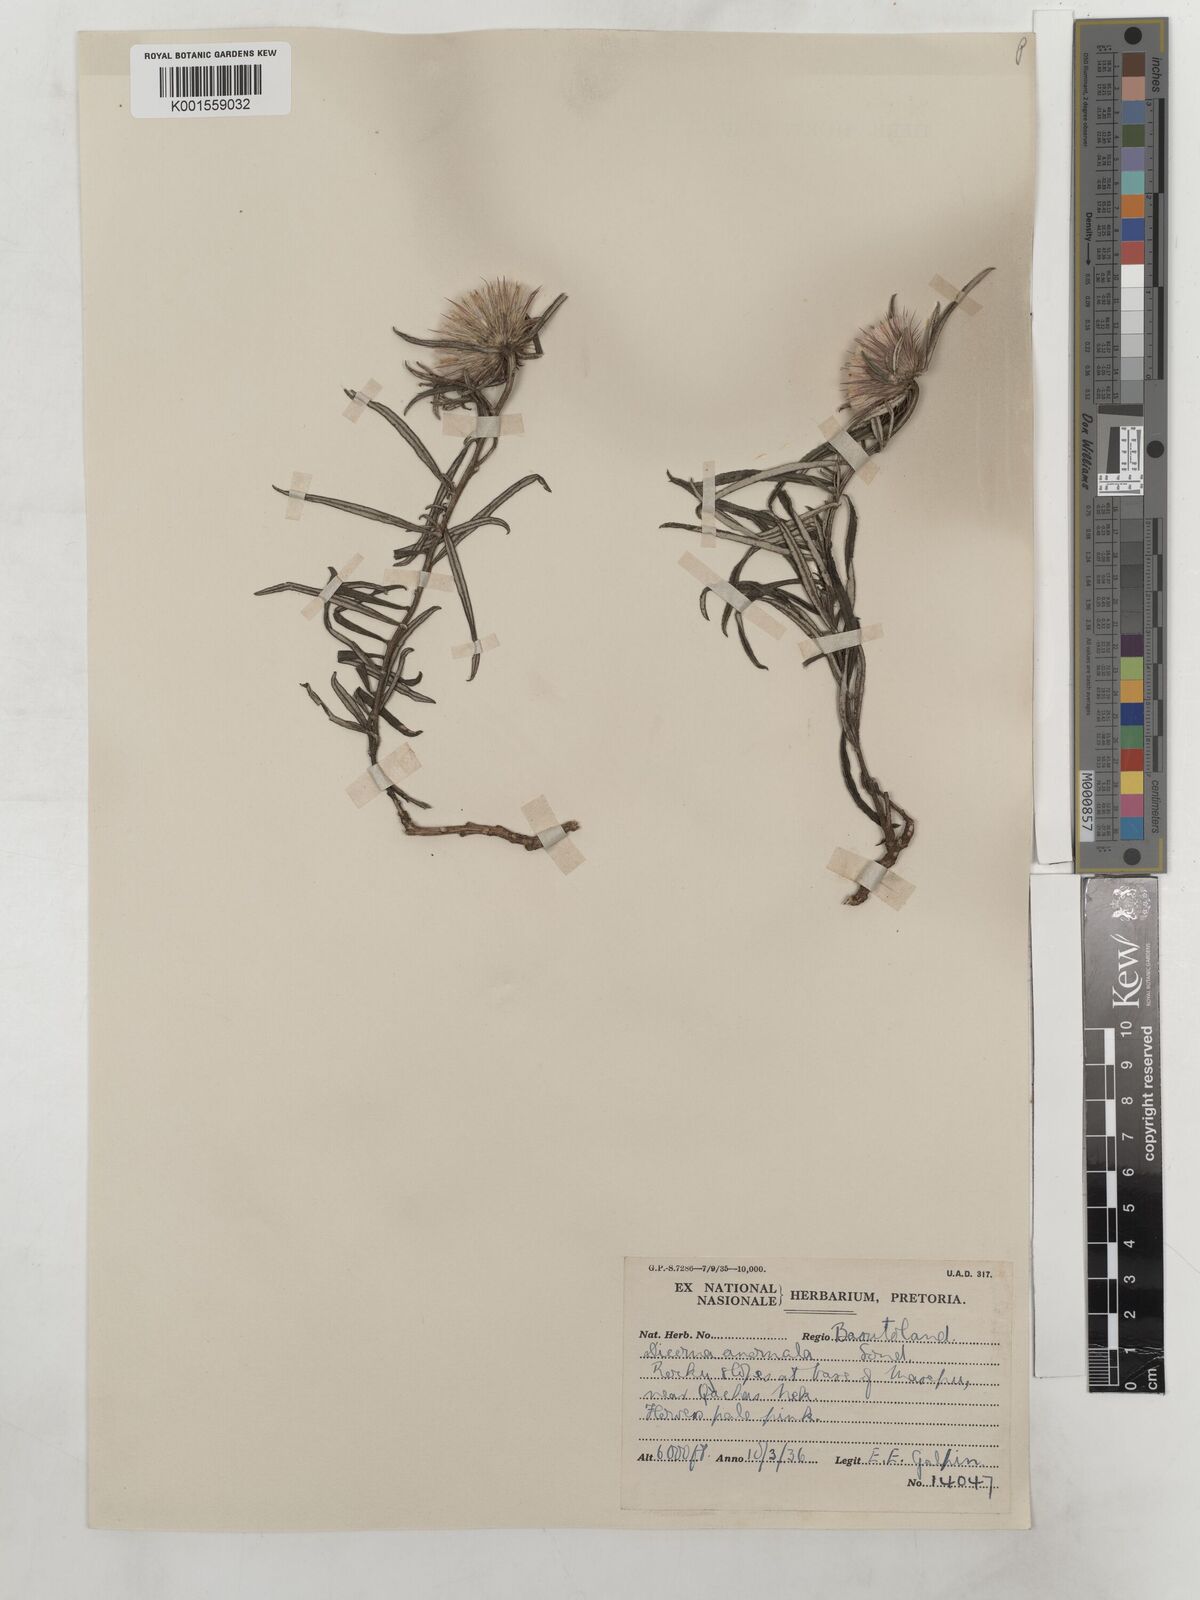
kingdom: Plantae
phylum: Tracheophyta
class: Magnoliopsida
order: Asterales
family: Asteraceae
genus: Dicoma
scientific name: Dicoma anomala
